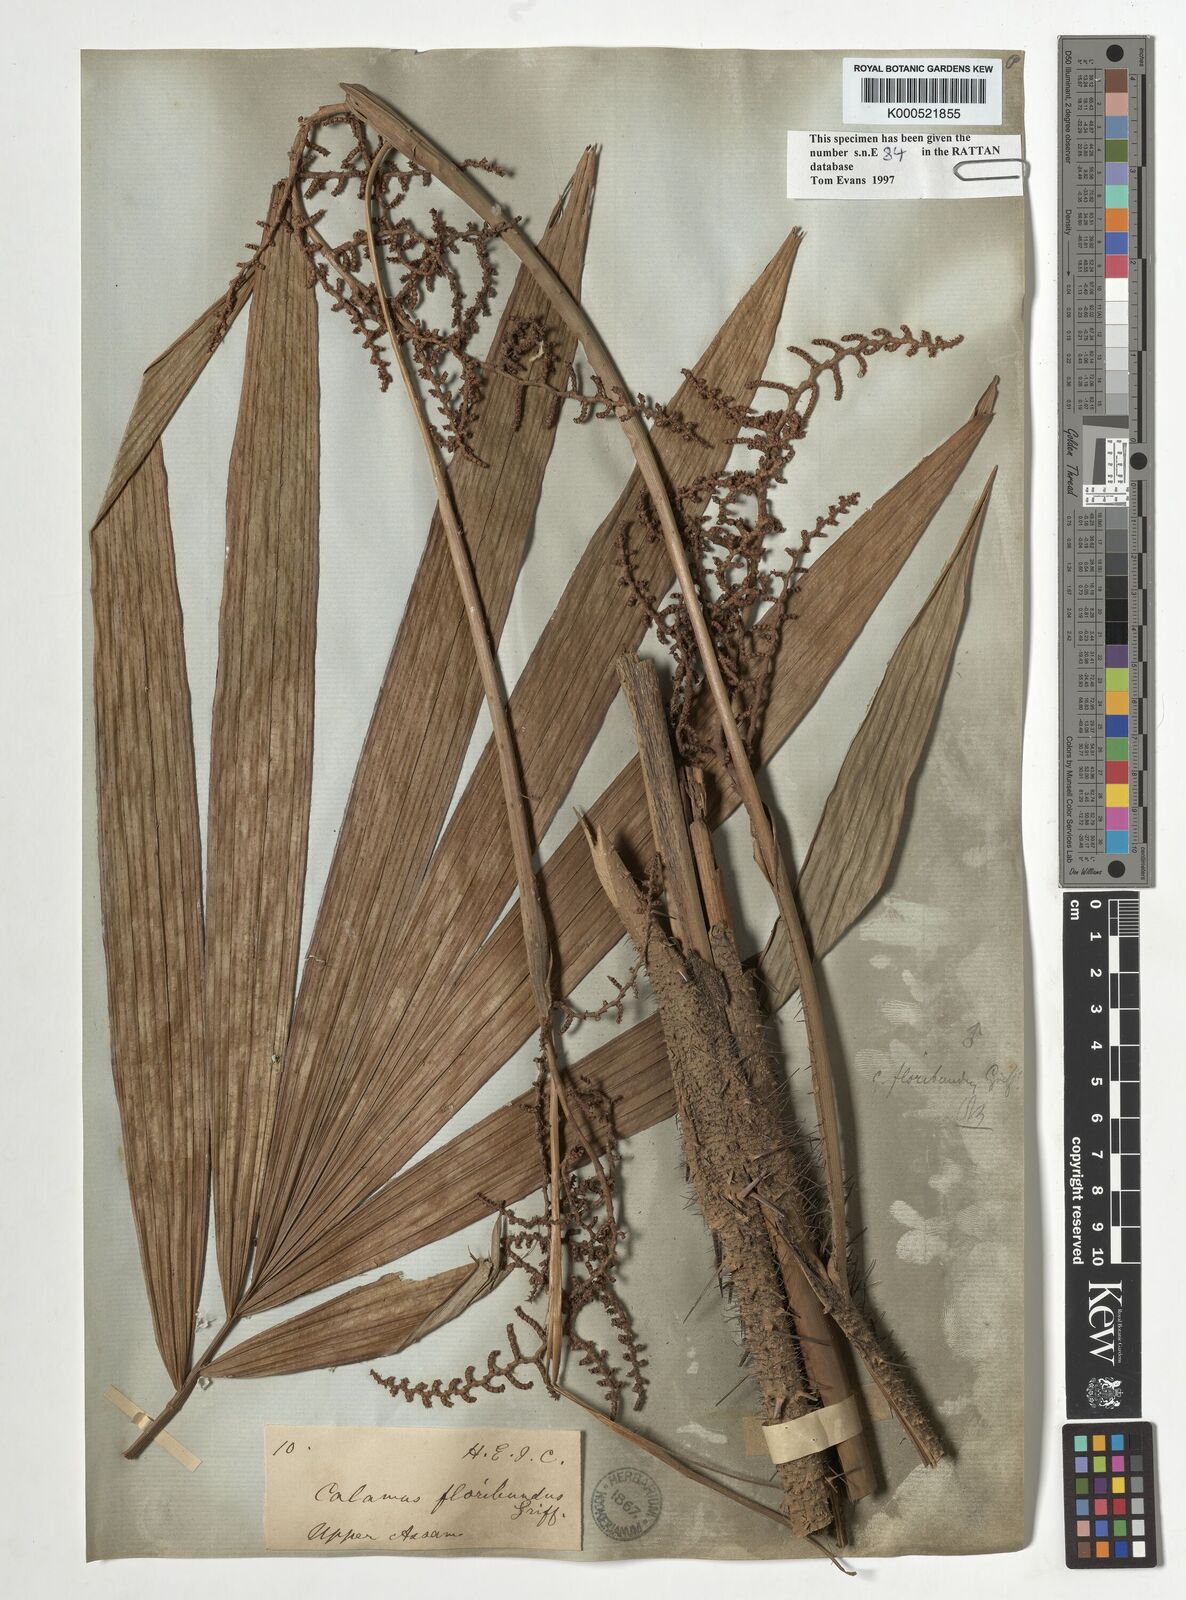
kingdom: Plantae
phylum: Tracheophyta
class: Liliopsida
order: Arecales
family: Arecaceae
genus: Calamus
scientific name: Calamus floribundus
